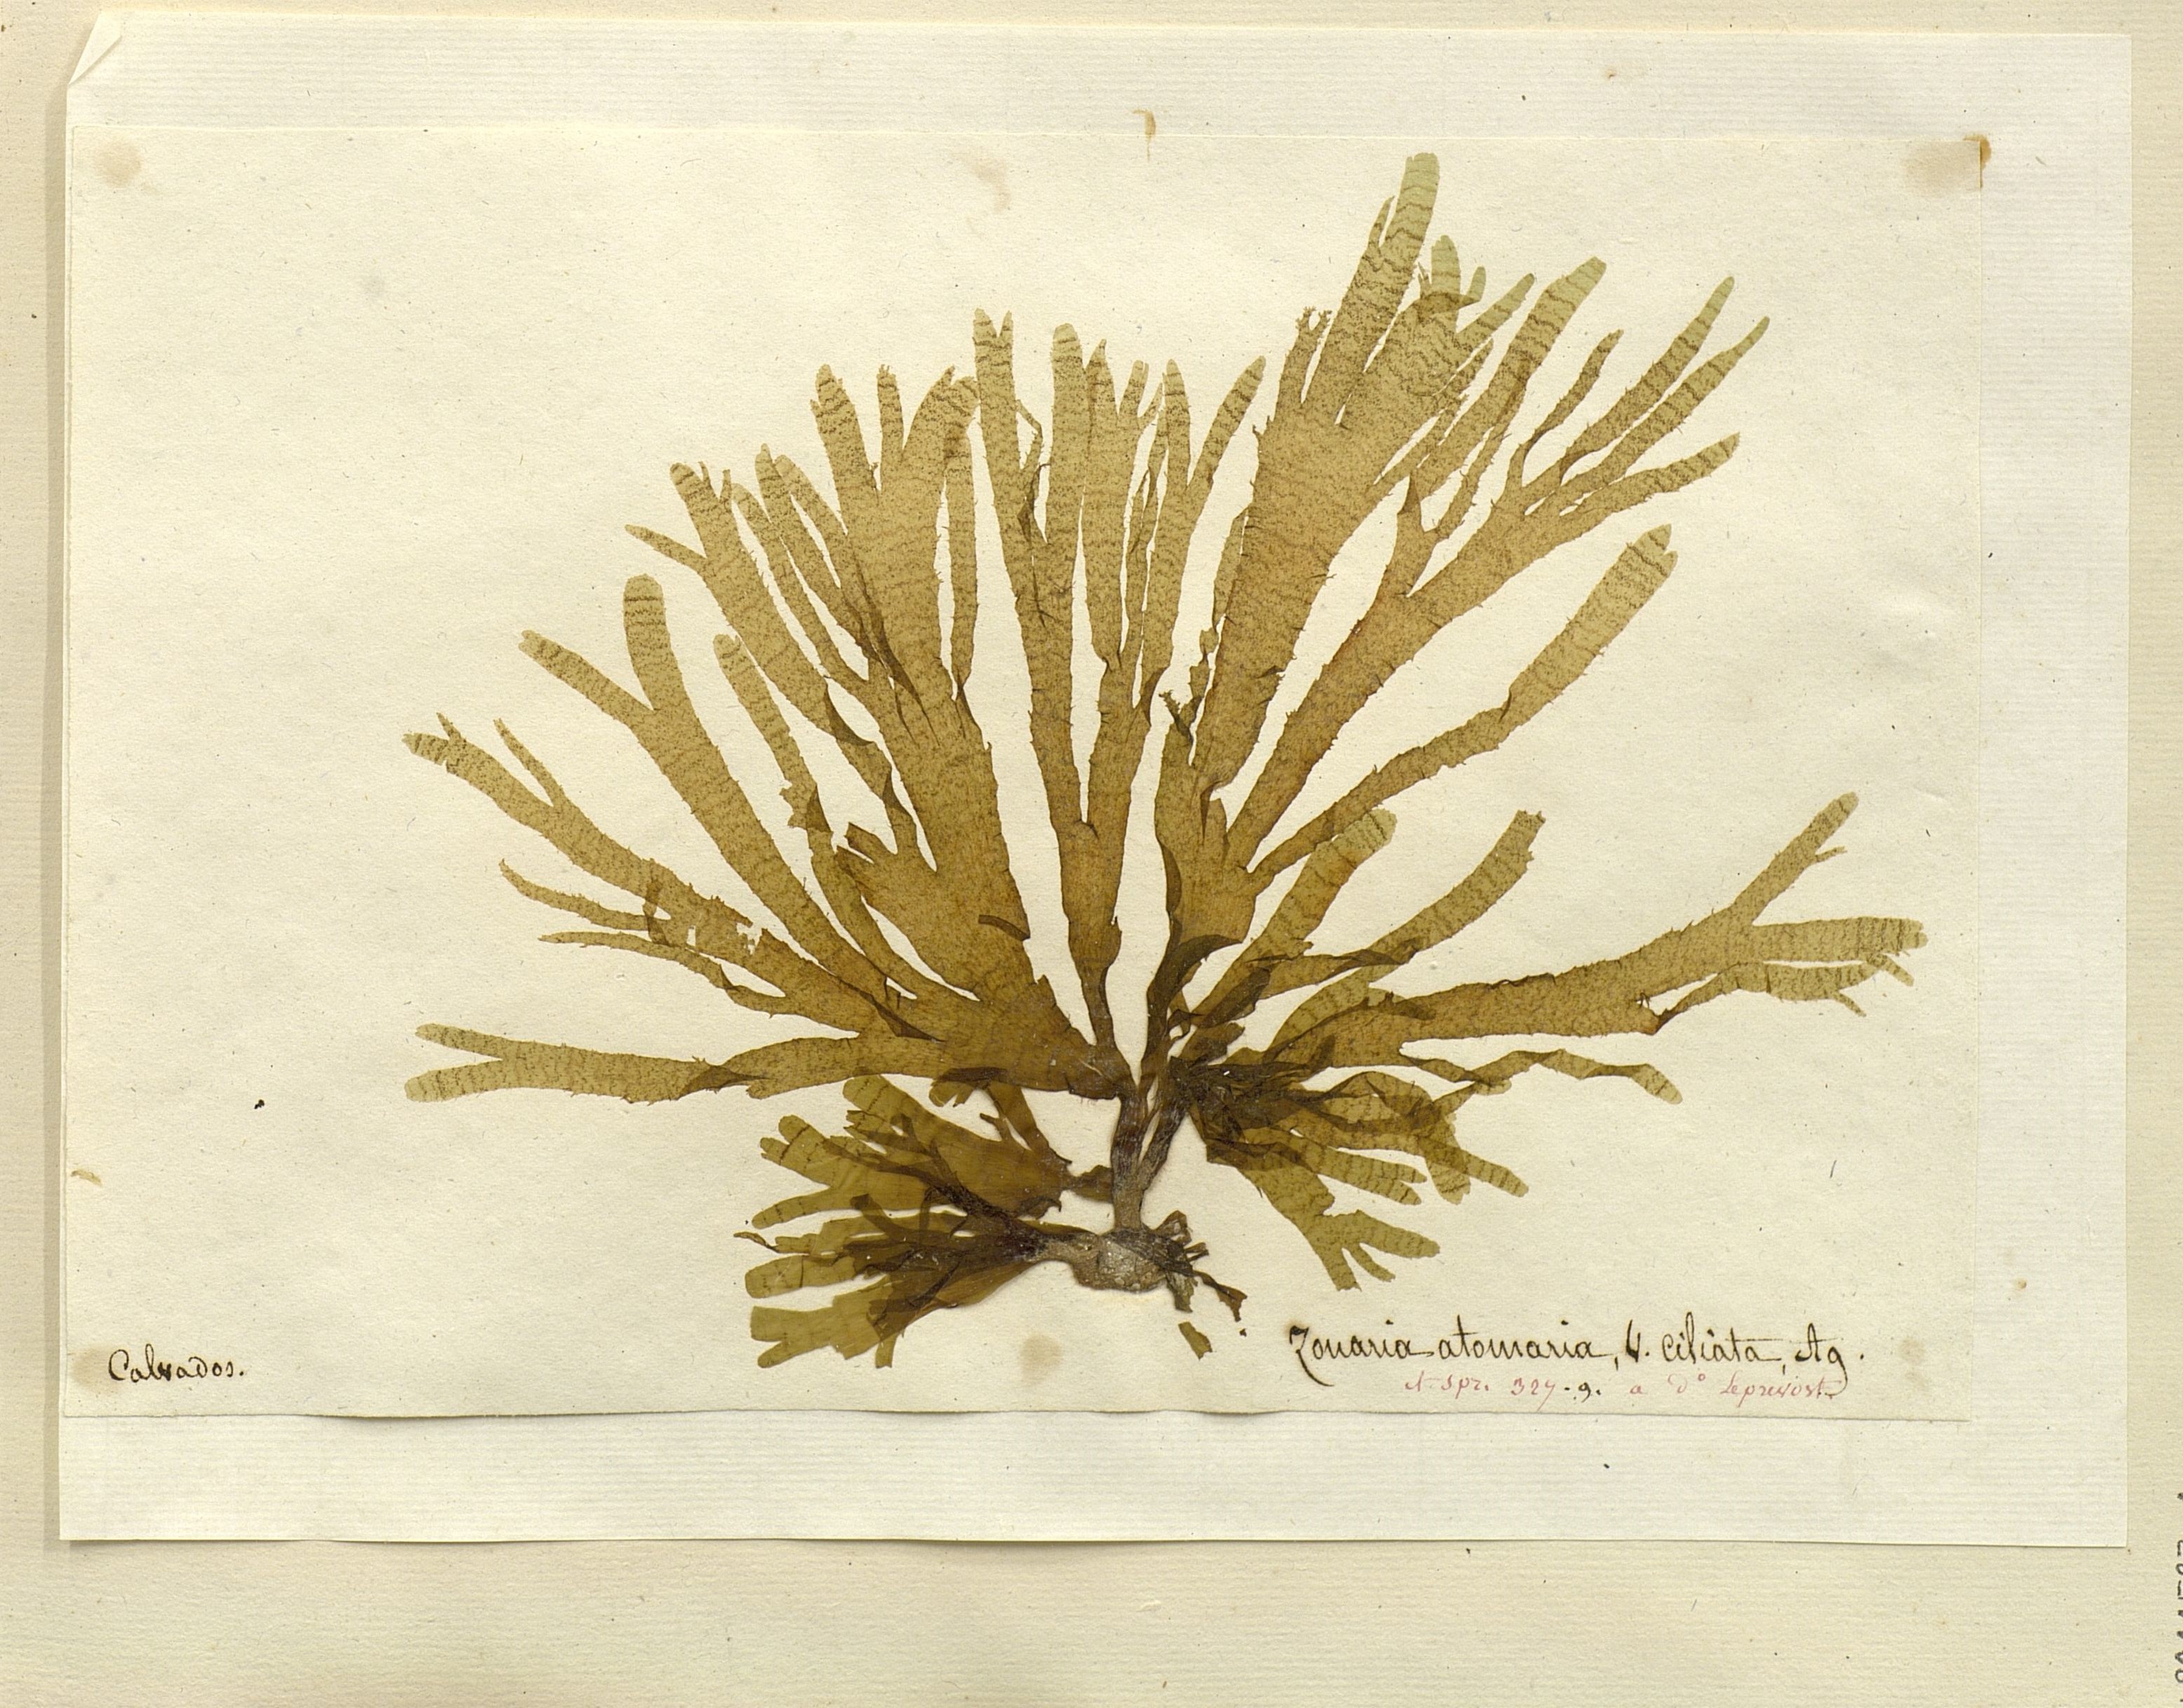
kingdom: Chromista
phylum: Ochrophyta
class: Phaeophyceae
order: Dictyotales
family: Dictyotaceae
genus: Zonaria
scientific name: Zonaria
